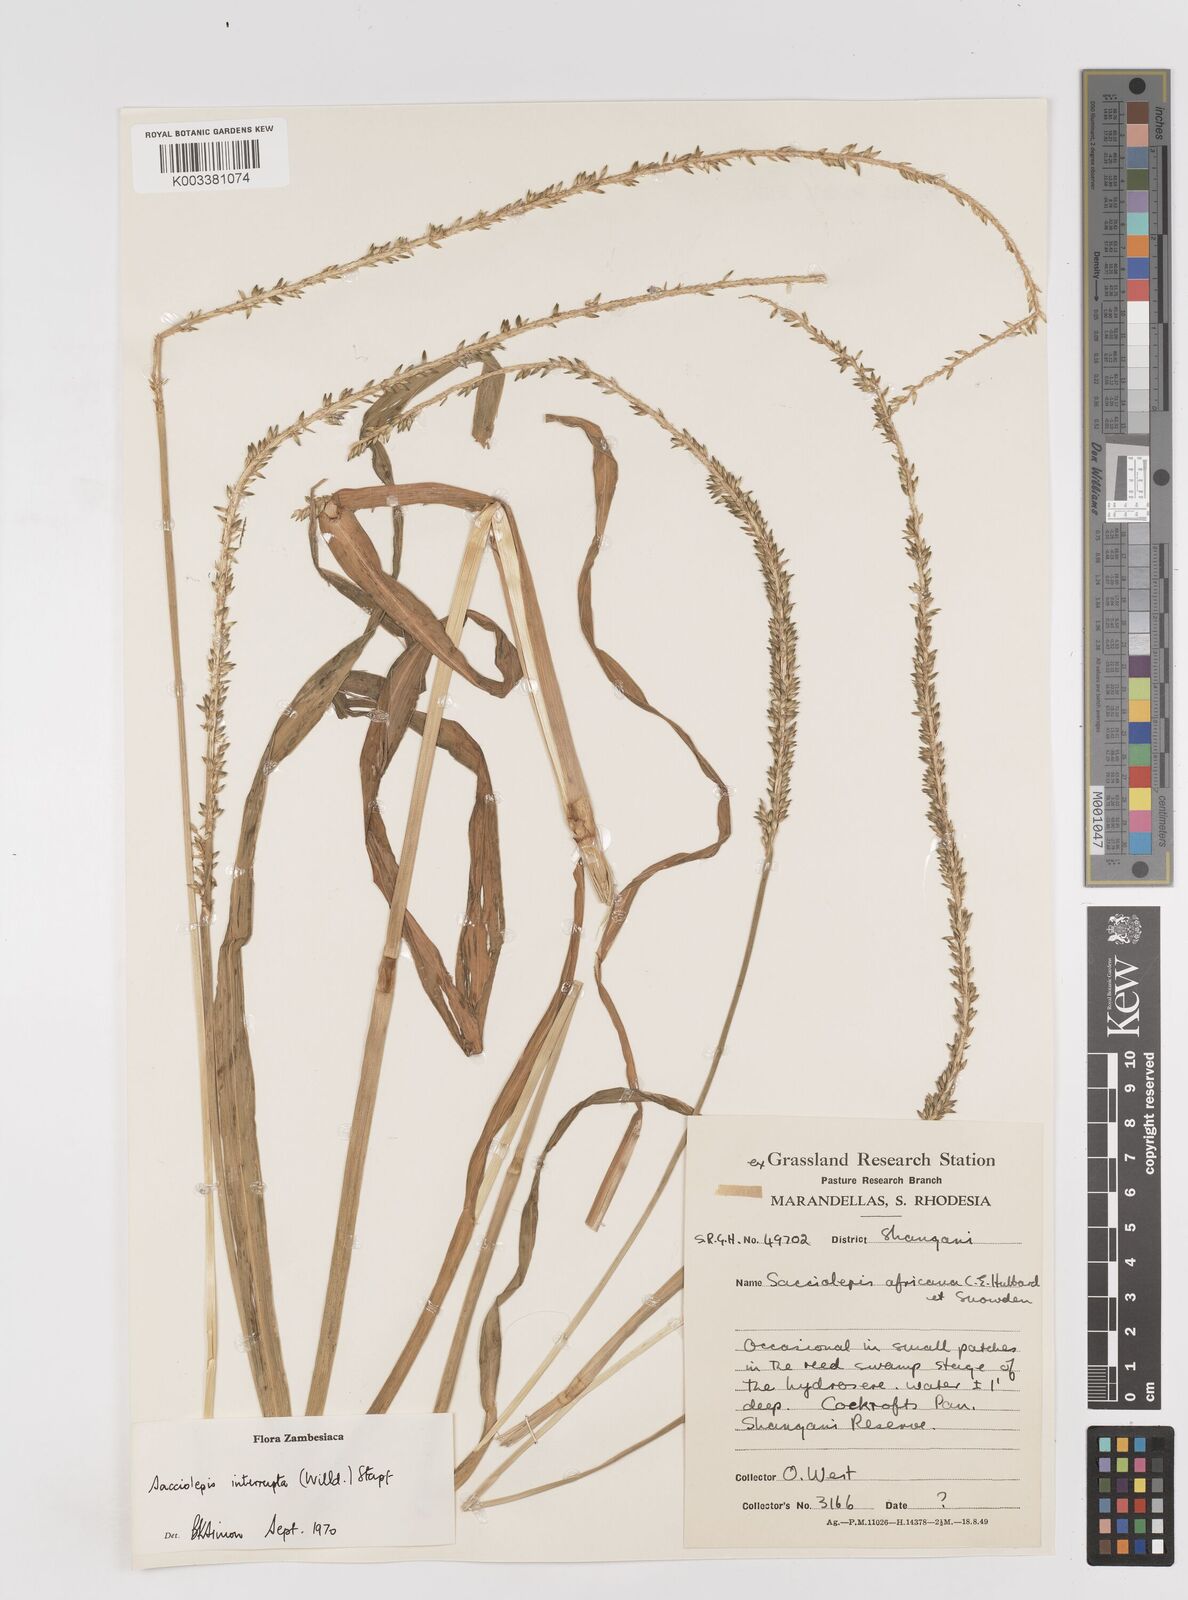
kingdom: Plantae
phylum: Tracheophyta
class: Liliopsida
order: Poales
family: Poaceae
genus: Sacciolepis
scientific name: Sacciolepis interrupta
